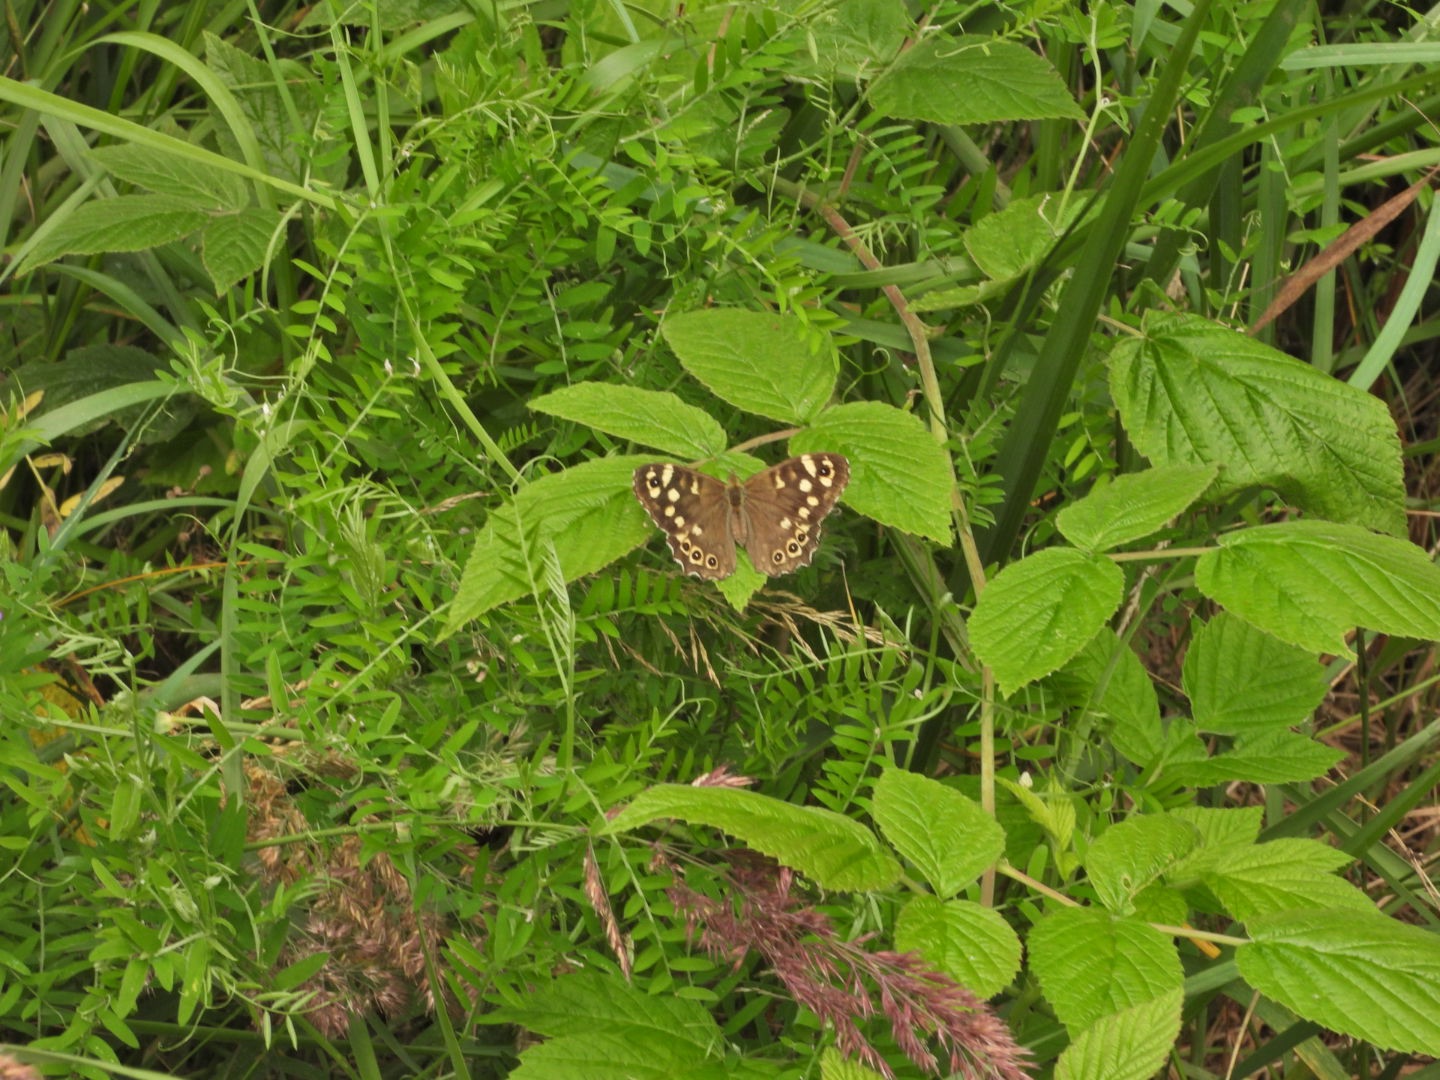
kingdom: Animalia
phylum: Arthropoda
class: Insecta
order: Lepidoptera
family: Nymphalidae
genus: Pararge
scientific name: Pararge aegeria
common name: Skovrandøje
